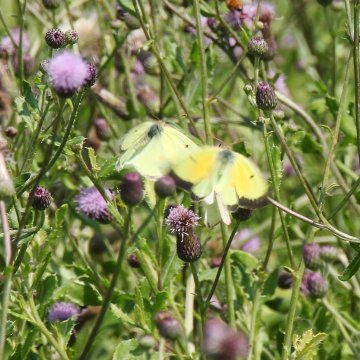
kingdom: Animalia
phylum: Arthropoda
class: Insecta
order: Lepidoptera
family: Pieridae
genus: Colias
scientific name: Colias eurytheme
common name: Orange Sulphur
